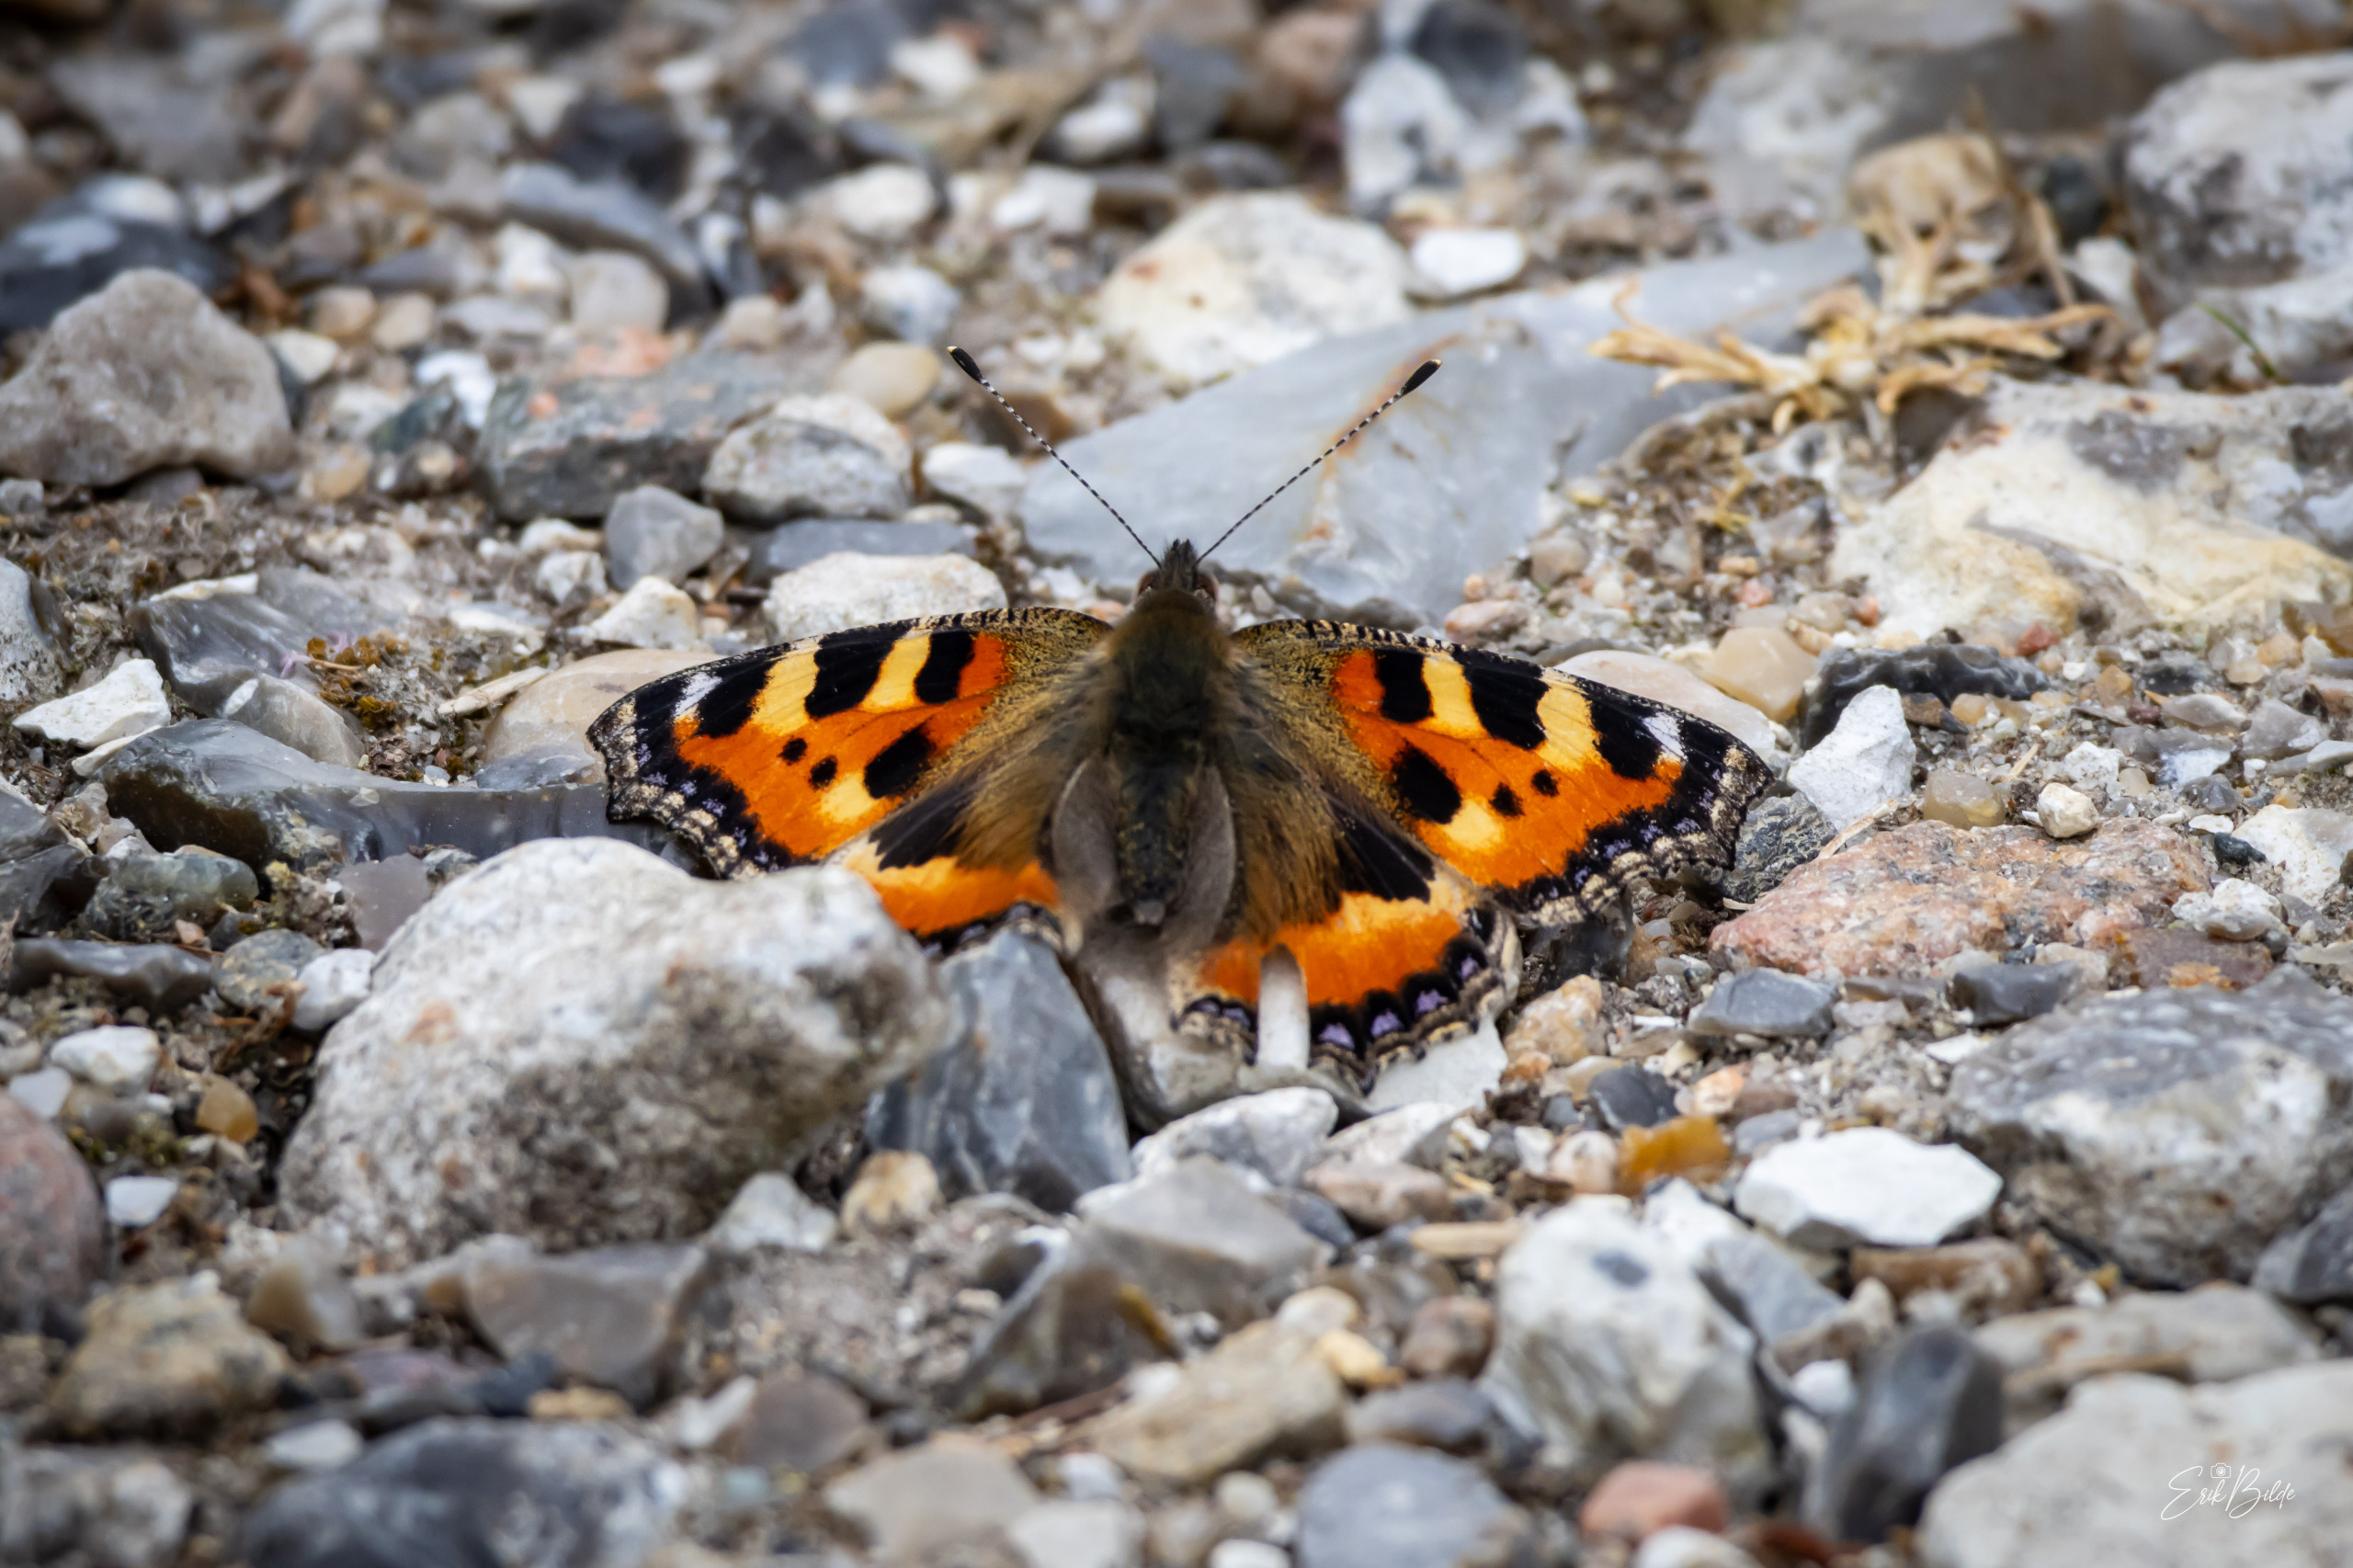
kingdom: Animalia
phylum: Arthropoda
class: Insecta
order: Lepidoptera
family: Nymphalidae
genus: Aglais
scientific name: Aglais urticae
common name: Nældens takvinge
